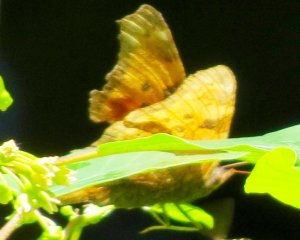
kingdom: Animalia
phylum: Arthropoda
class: Insecta
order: Lepidoptera
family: Nymphalidae
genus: Polygonia
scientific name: Polygonia comma
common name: Eastern Comma
